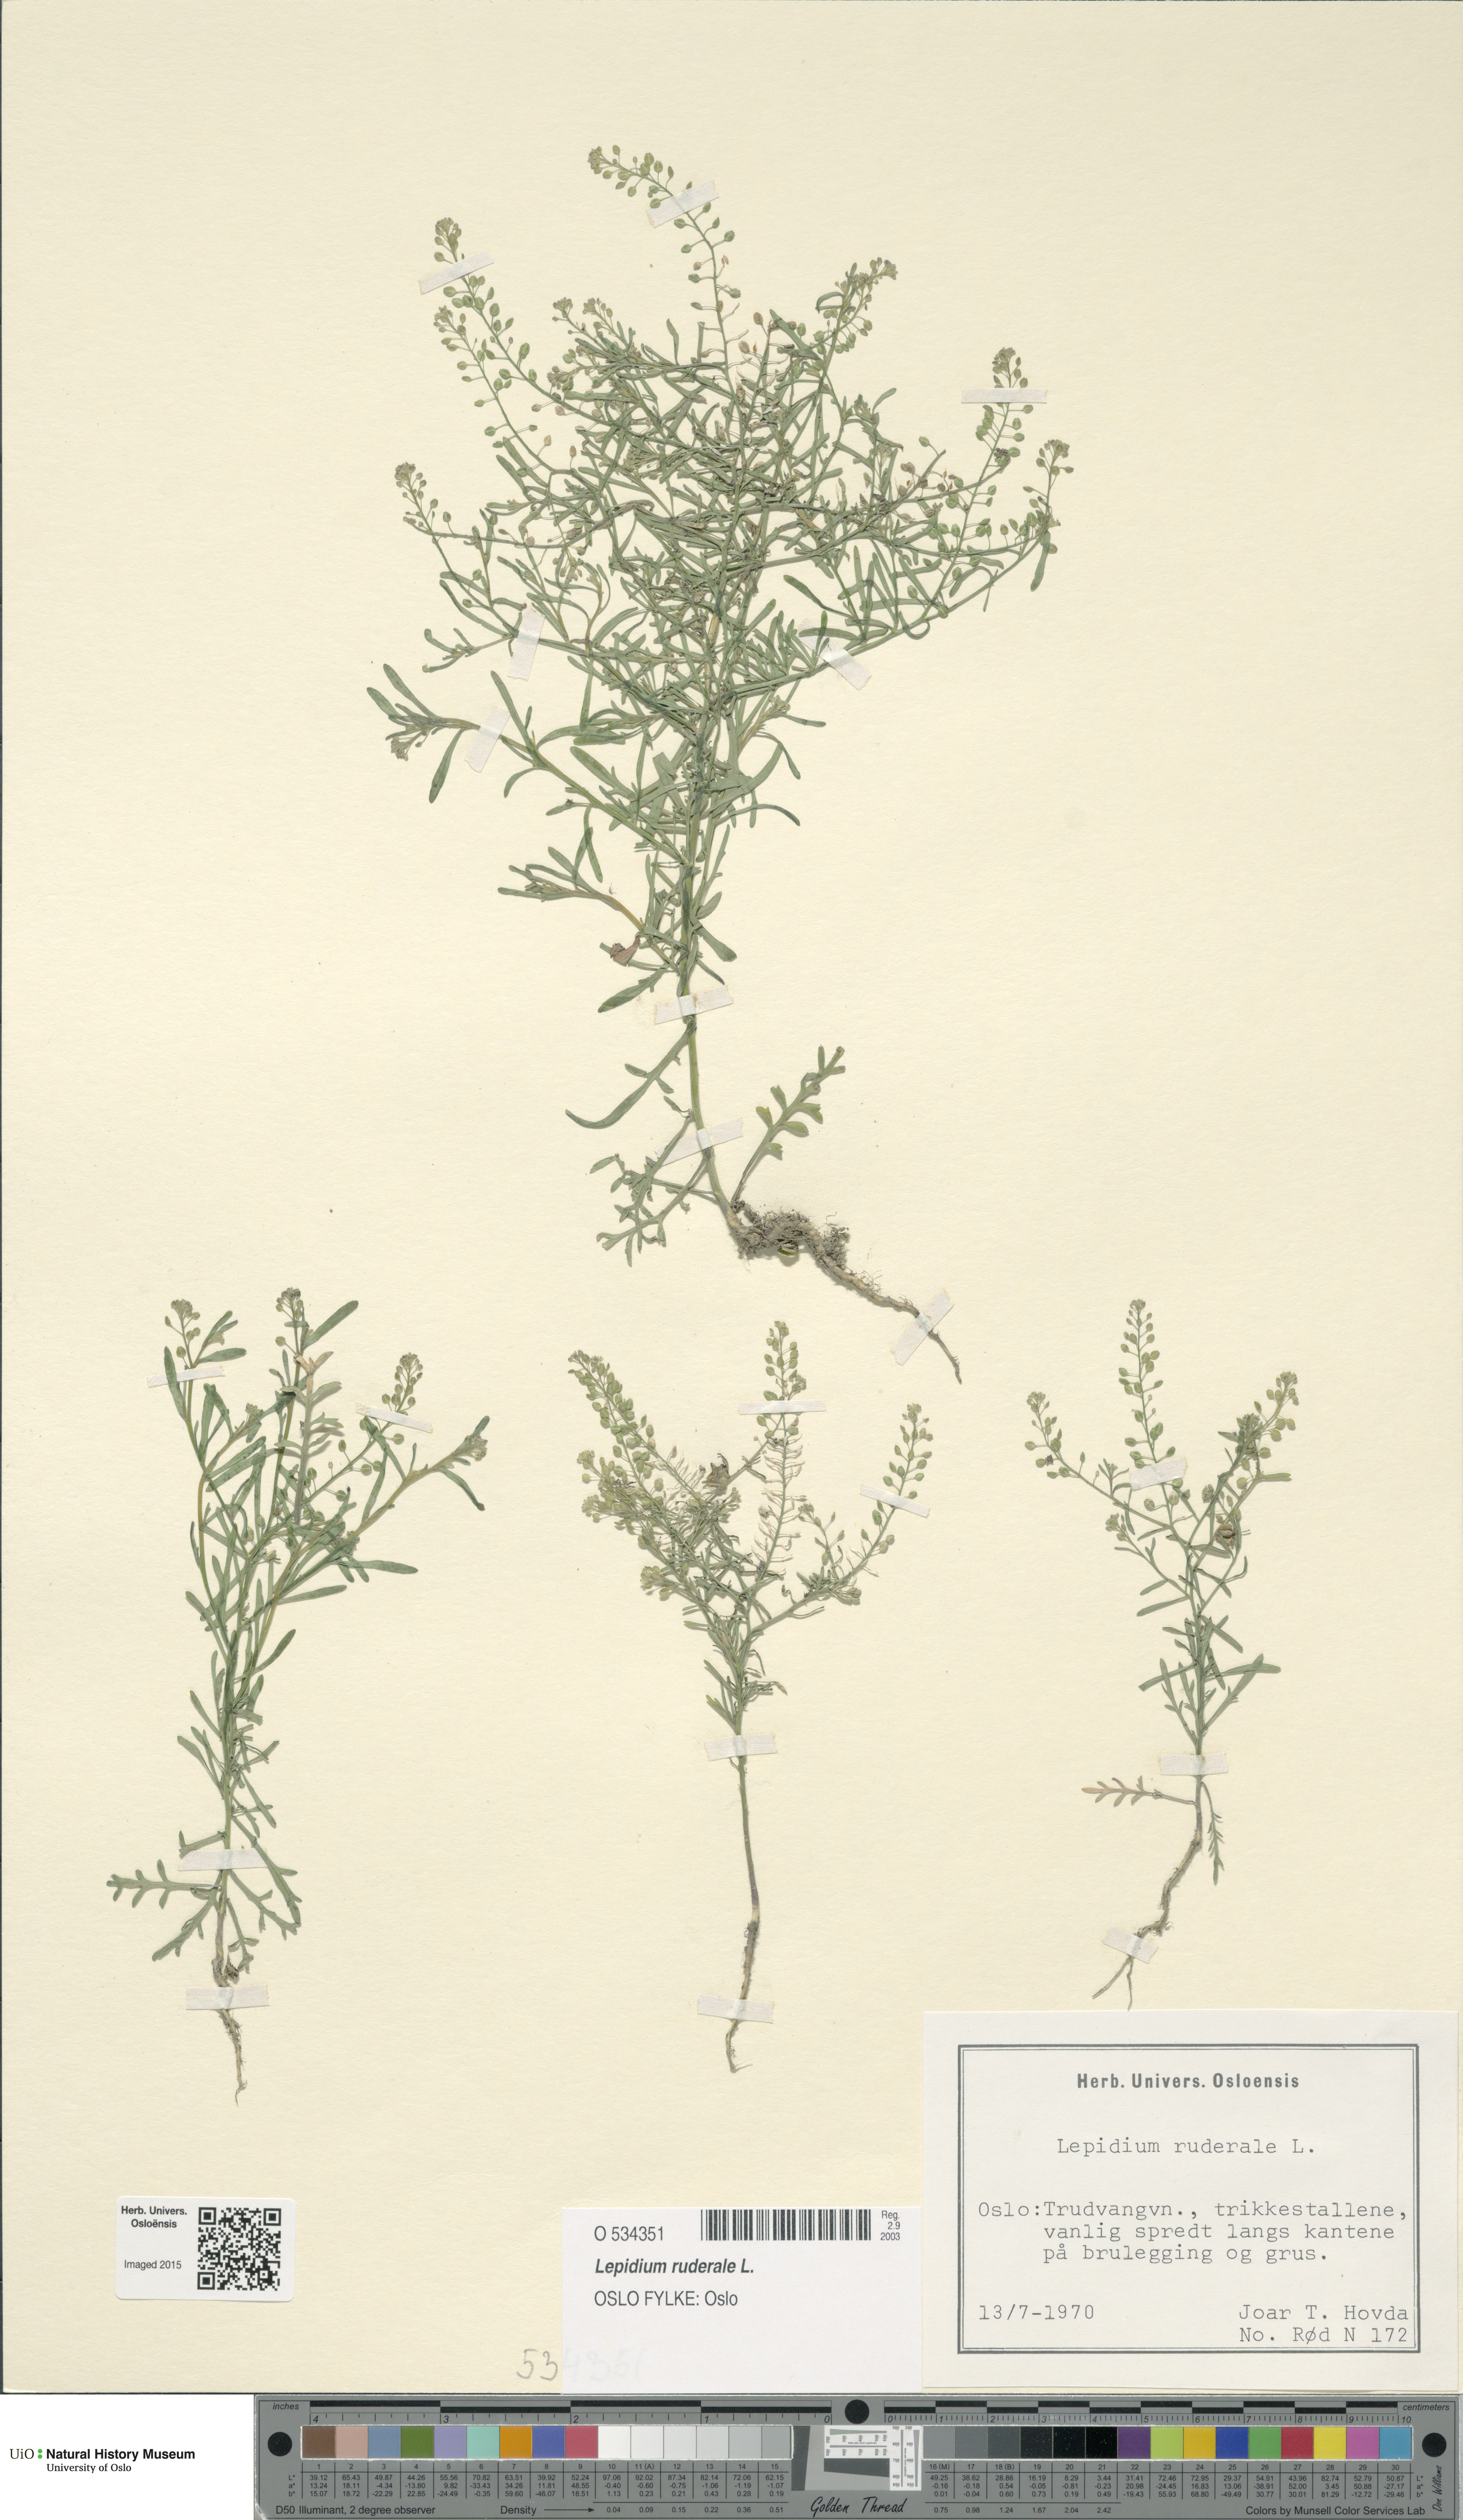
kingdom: Plantae
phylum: Tracheophyta
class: Magnoliopsida
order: Brassicales
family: Brassicaceae
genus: Lepidium
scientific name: Lepidium ruderale
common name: Narrow-leaved pepperwort
